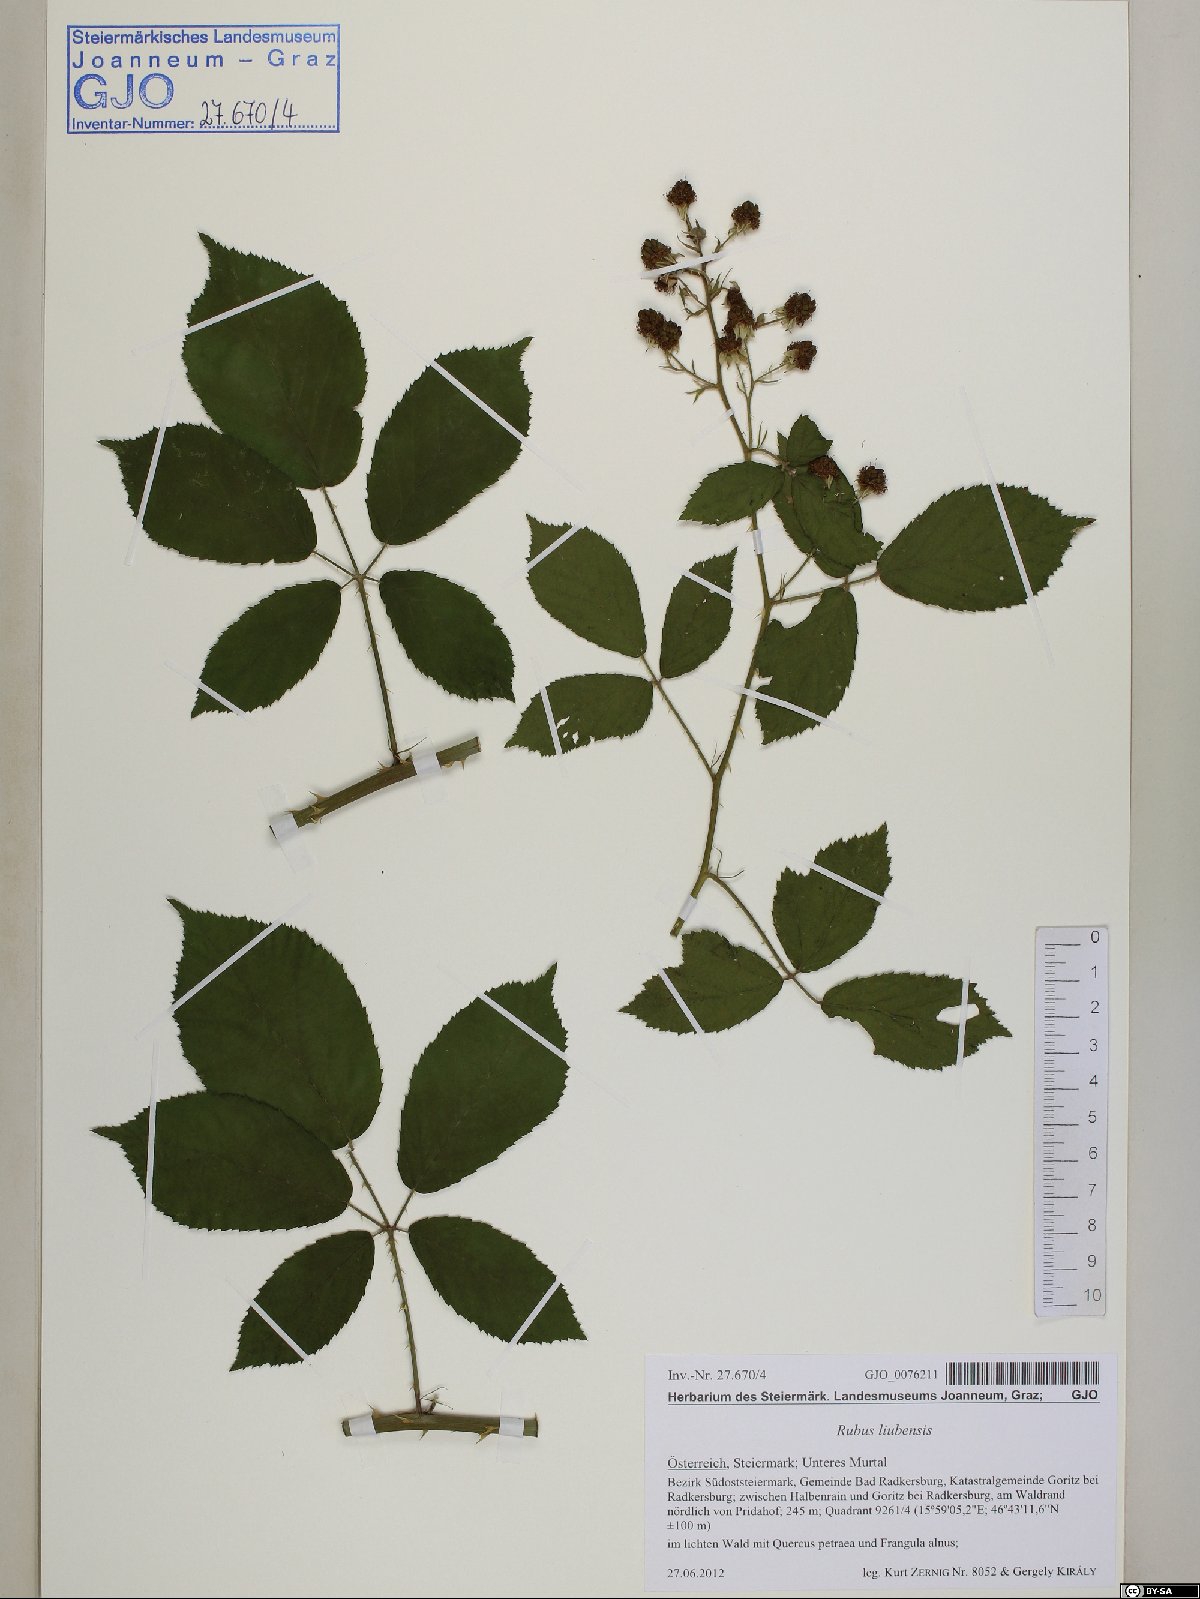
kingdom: Plantae
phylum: Tracheophyta
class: Magnoliopsida
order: Rosales
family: Rosaceae
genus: Rubus
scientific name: Rubus liubensis
